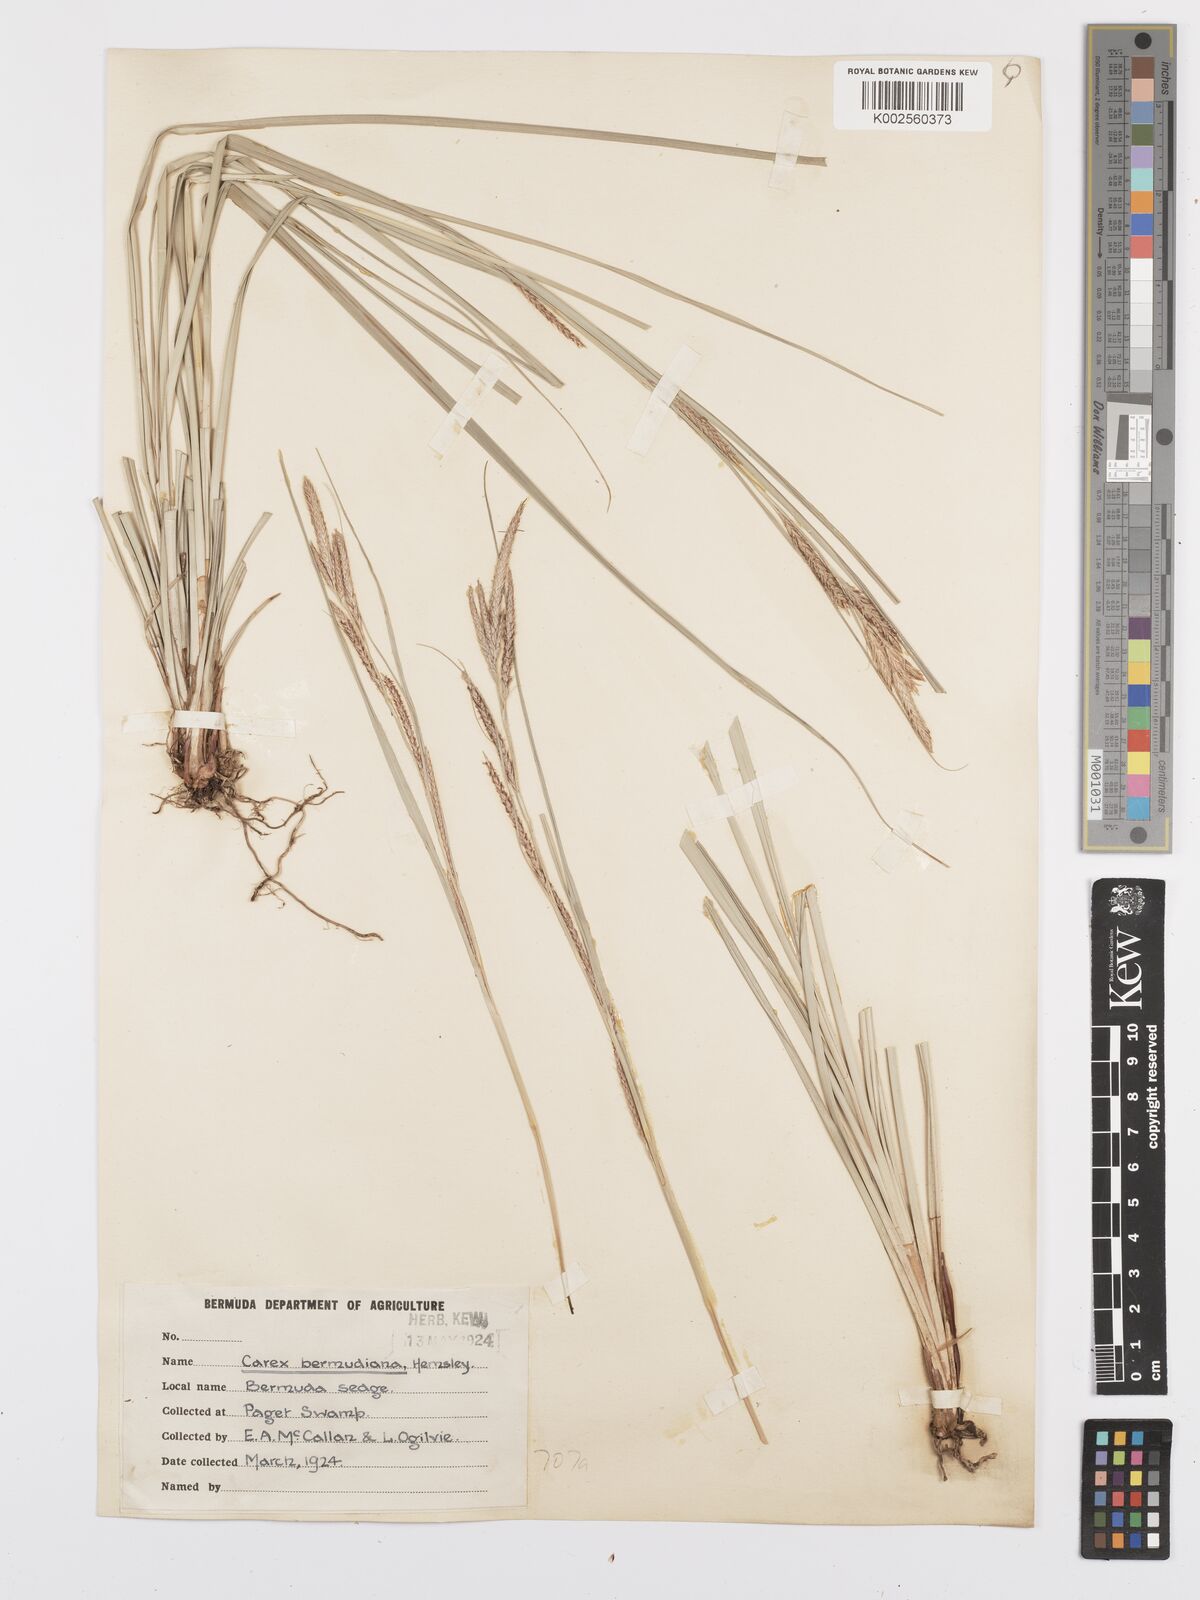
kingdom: Plantae
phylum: Tracheophyta
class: Liliopsida
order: Poales
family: Cyperaceae
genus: Carex
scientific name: Carex bermudiana
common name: Bermuda sedge
